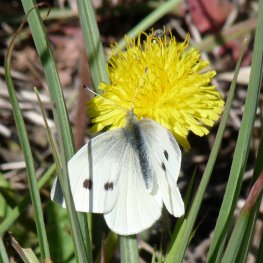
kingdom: Animalia
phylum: Arthropoda
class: Insecta
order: Lepidoptera
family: Pieridae
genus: Pieris
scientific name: Pieris rapae
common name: Cabbage White
